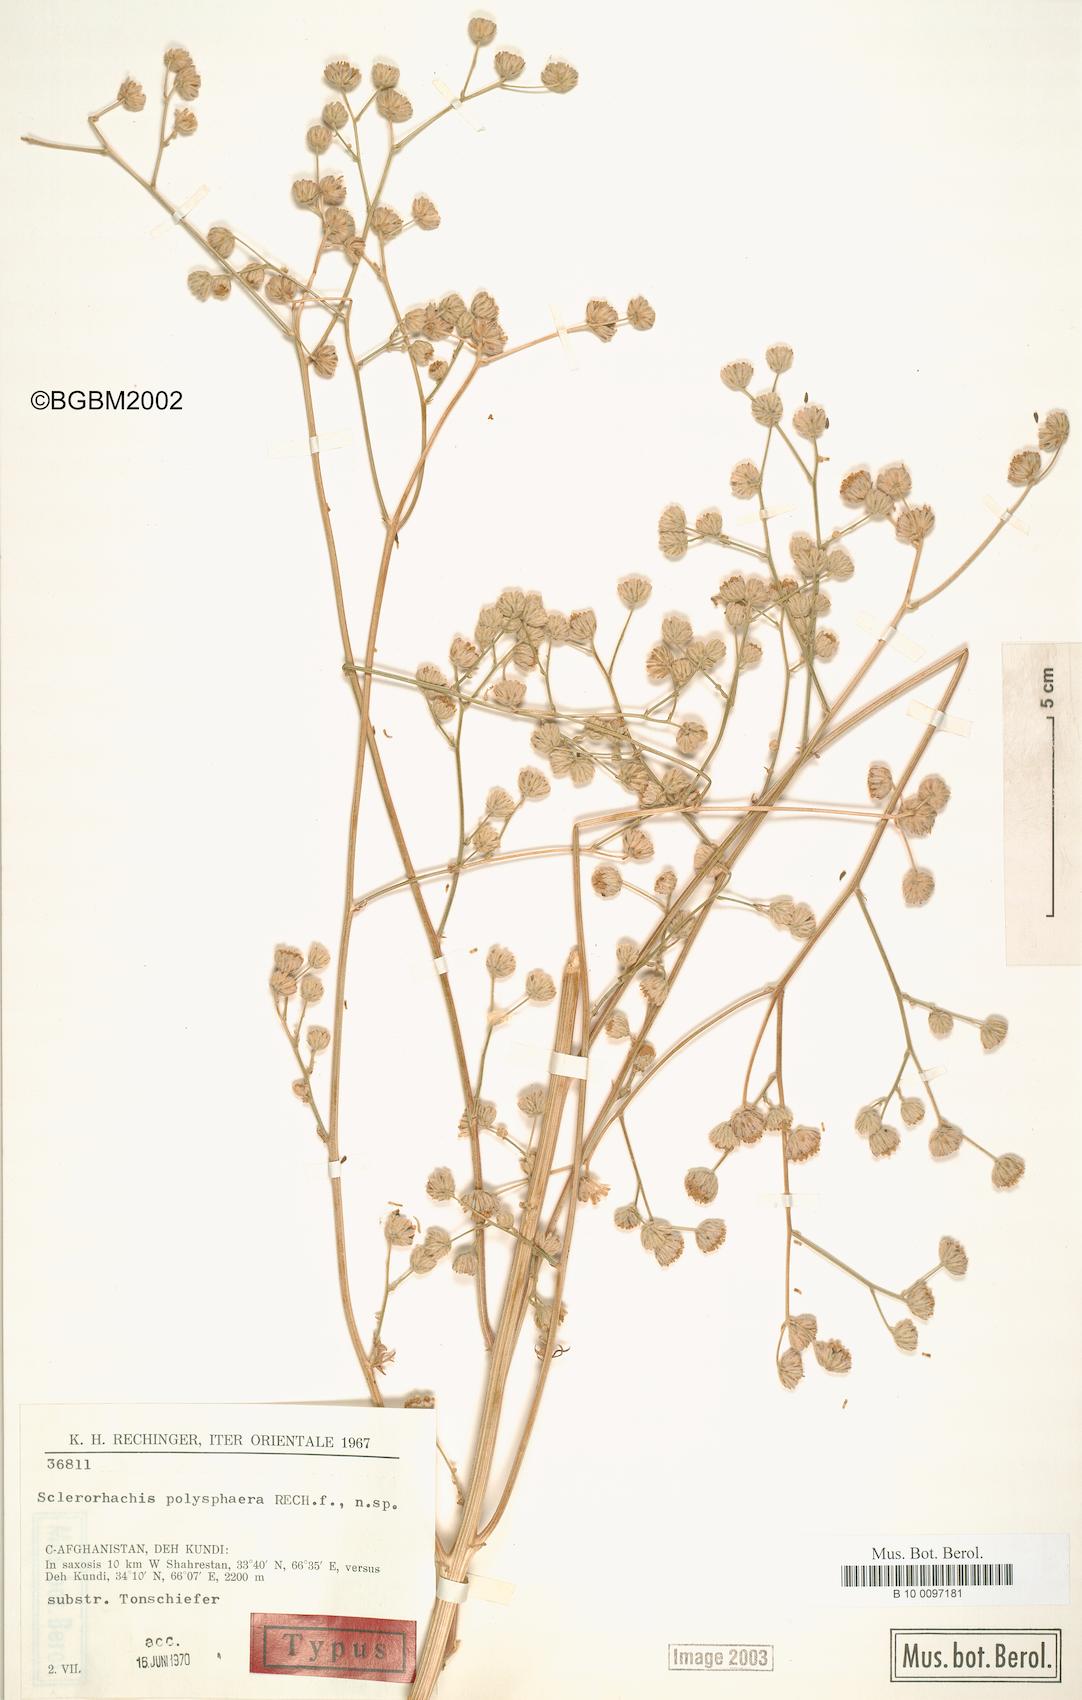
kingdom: Plantae
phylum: Tracheophyta
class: Magnoliopsida
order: Asterales
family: Asteraceae
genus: Sclerorhachis
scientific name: Sclerorhachis polysphaera
